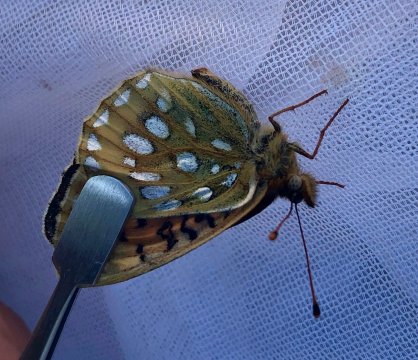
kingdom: Animalia
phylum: Arthropoda
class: Insecta
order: Lepidoptera
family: Nymphalidae
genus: Speyeria
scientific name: Speyeria mormonia
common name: Mormon Fritillary
